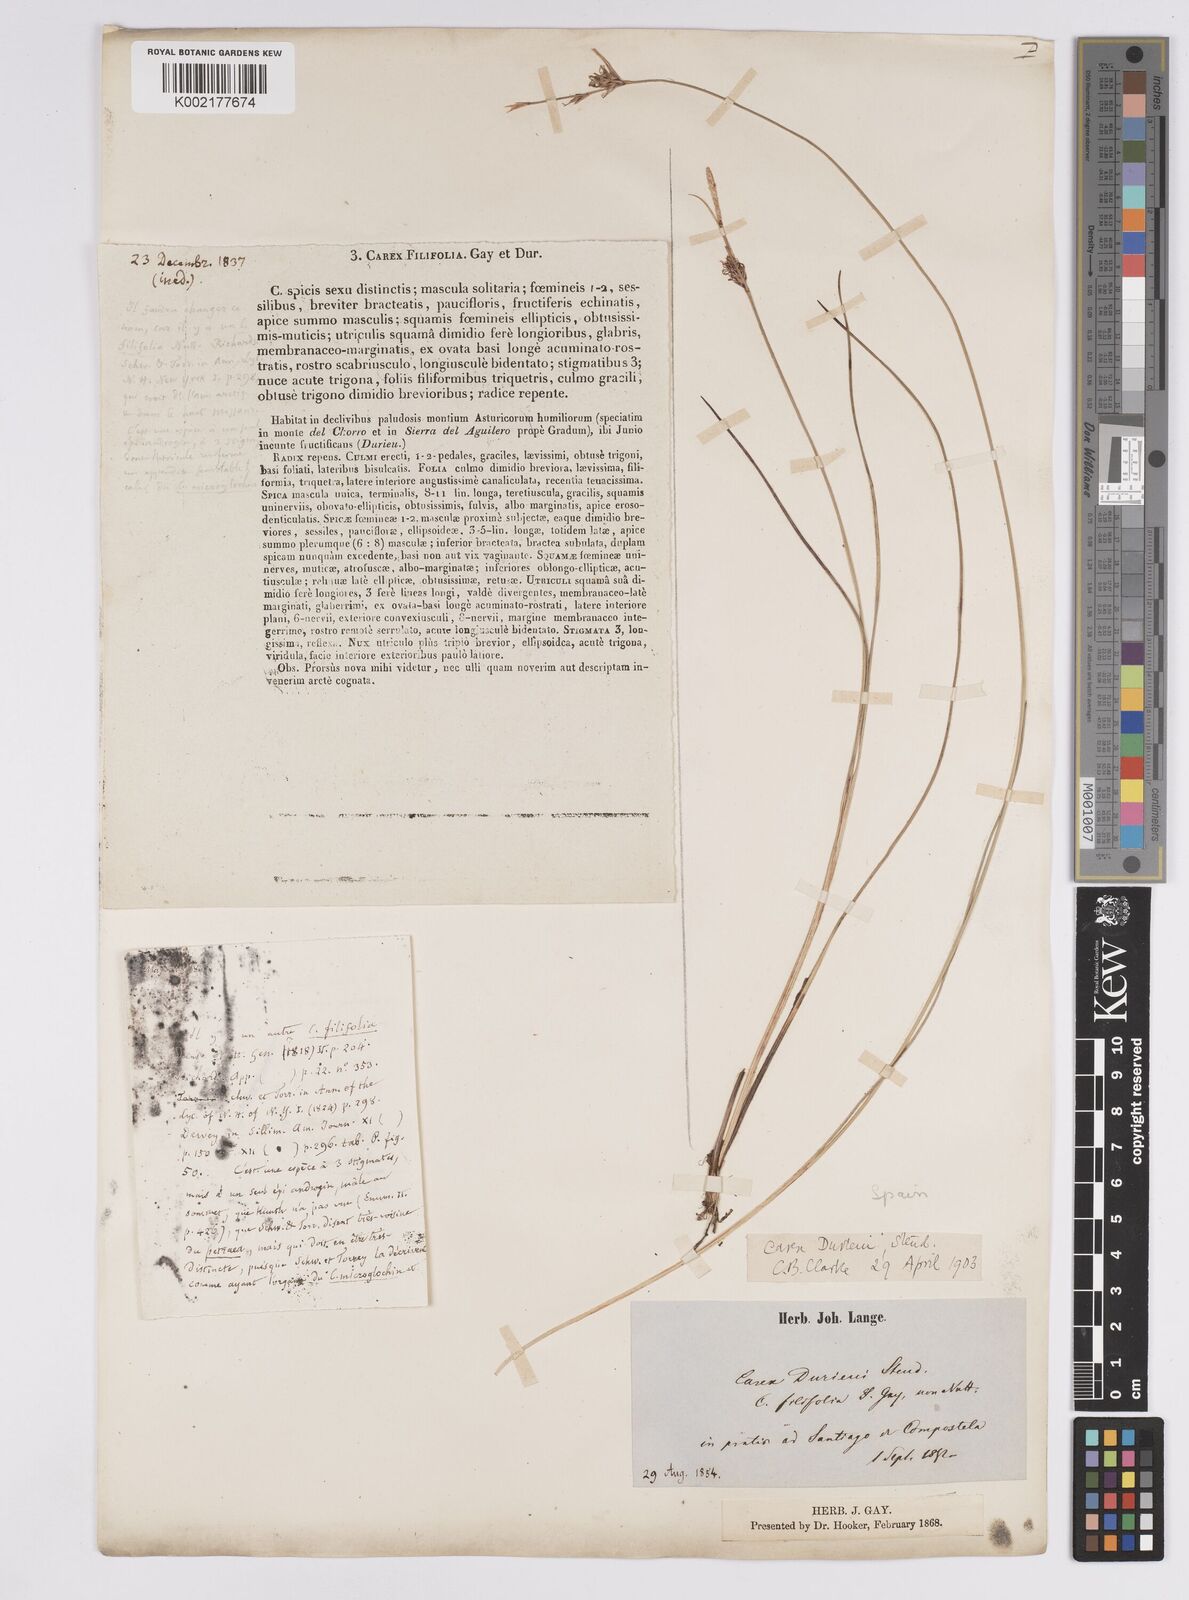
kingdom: Plantae
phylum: Tracheophyta
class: Liliopsida
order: Poales
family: Cyperaceae
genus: Carex
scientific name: Carex durieui
